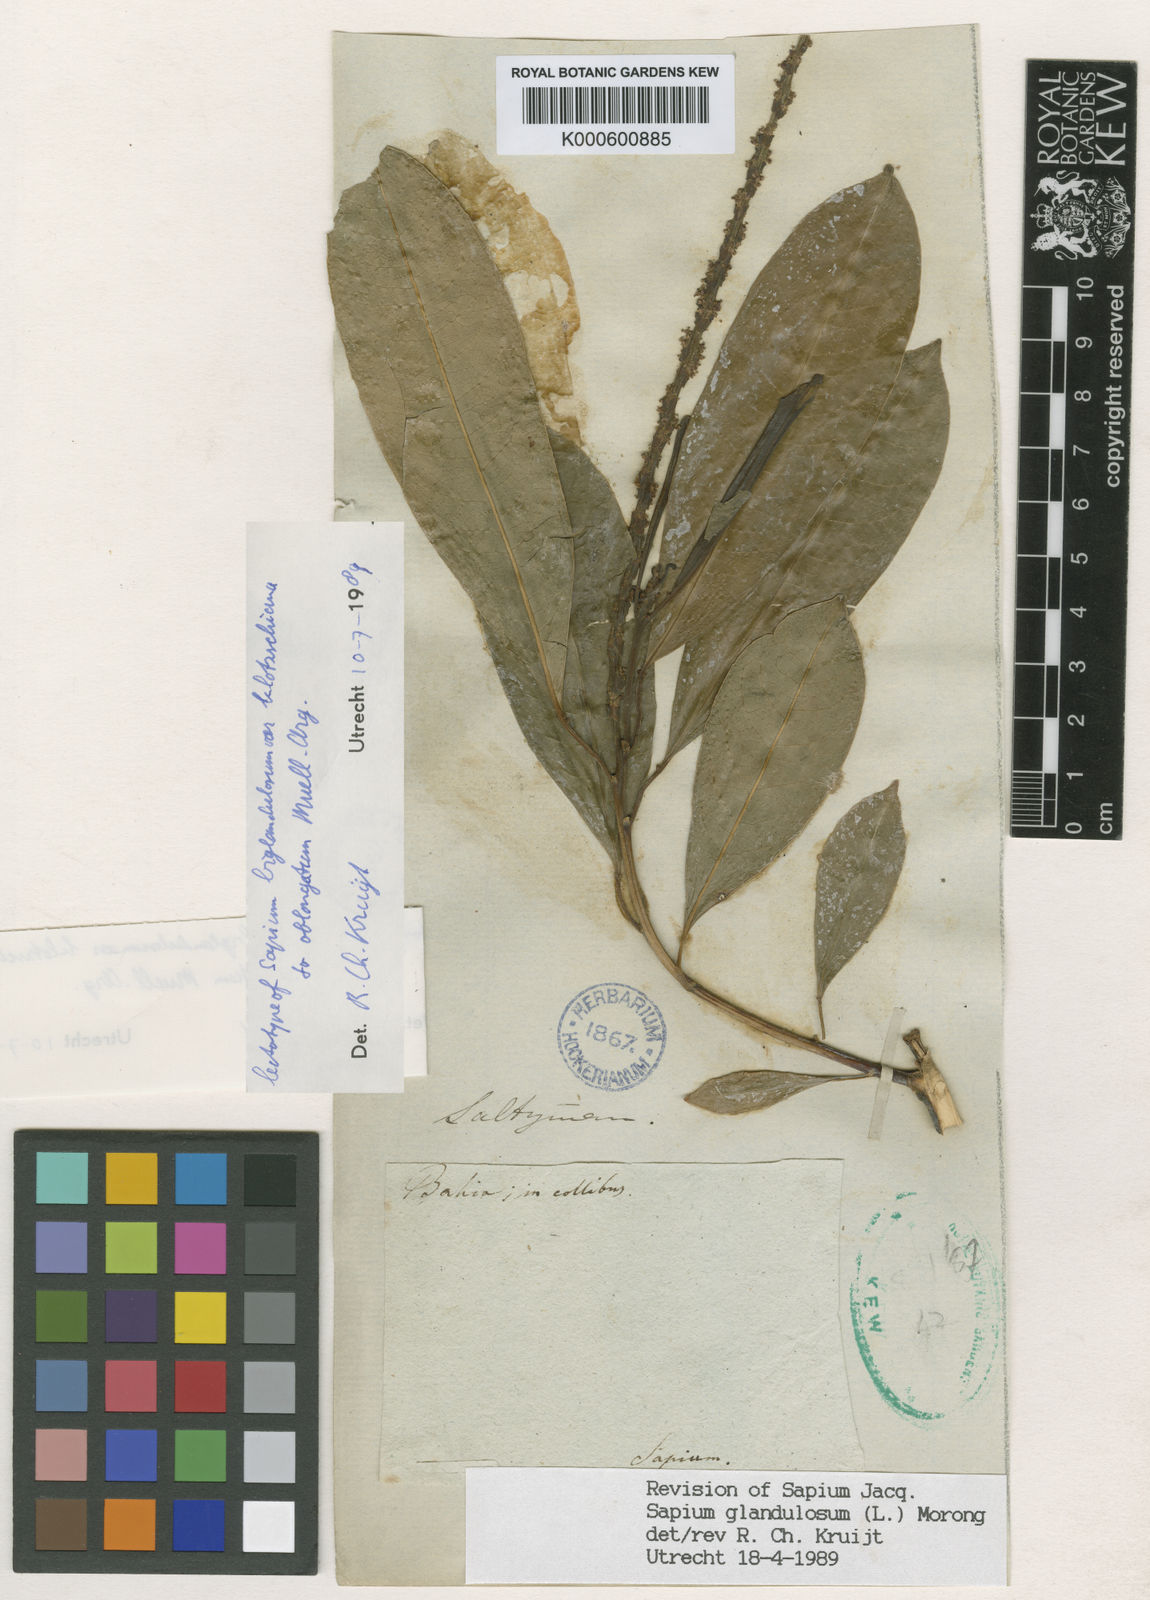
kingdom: Plantae
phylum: Tracheophyta
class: Magnoliopsida
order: Malpighiales
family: Euphorbiaceae
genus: Sapium
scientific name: Sapium glandulosum
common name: Milktree
